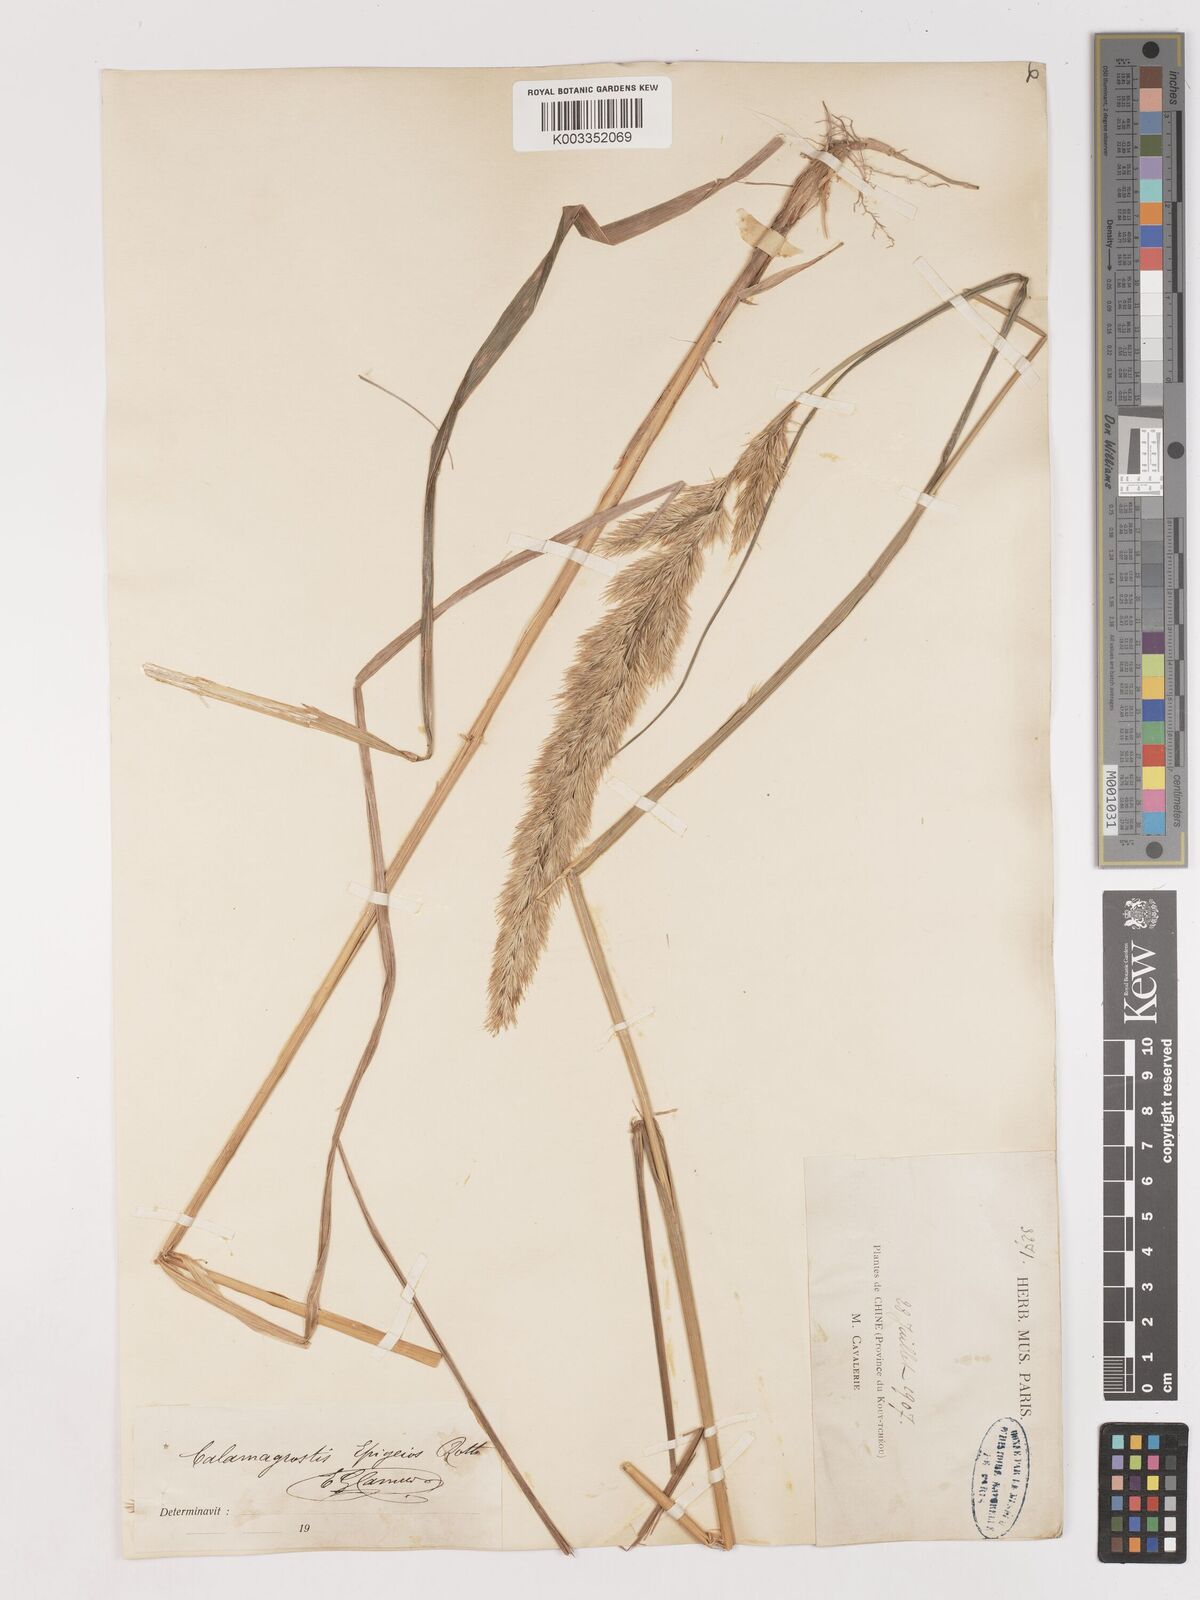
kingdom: Plantae
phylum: Tracheophyta
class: Liliopsida
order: Poales
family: Poaceae
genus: Calamagrostis
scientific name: Calamagrostis epigejos
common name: Wood small-reed
